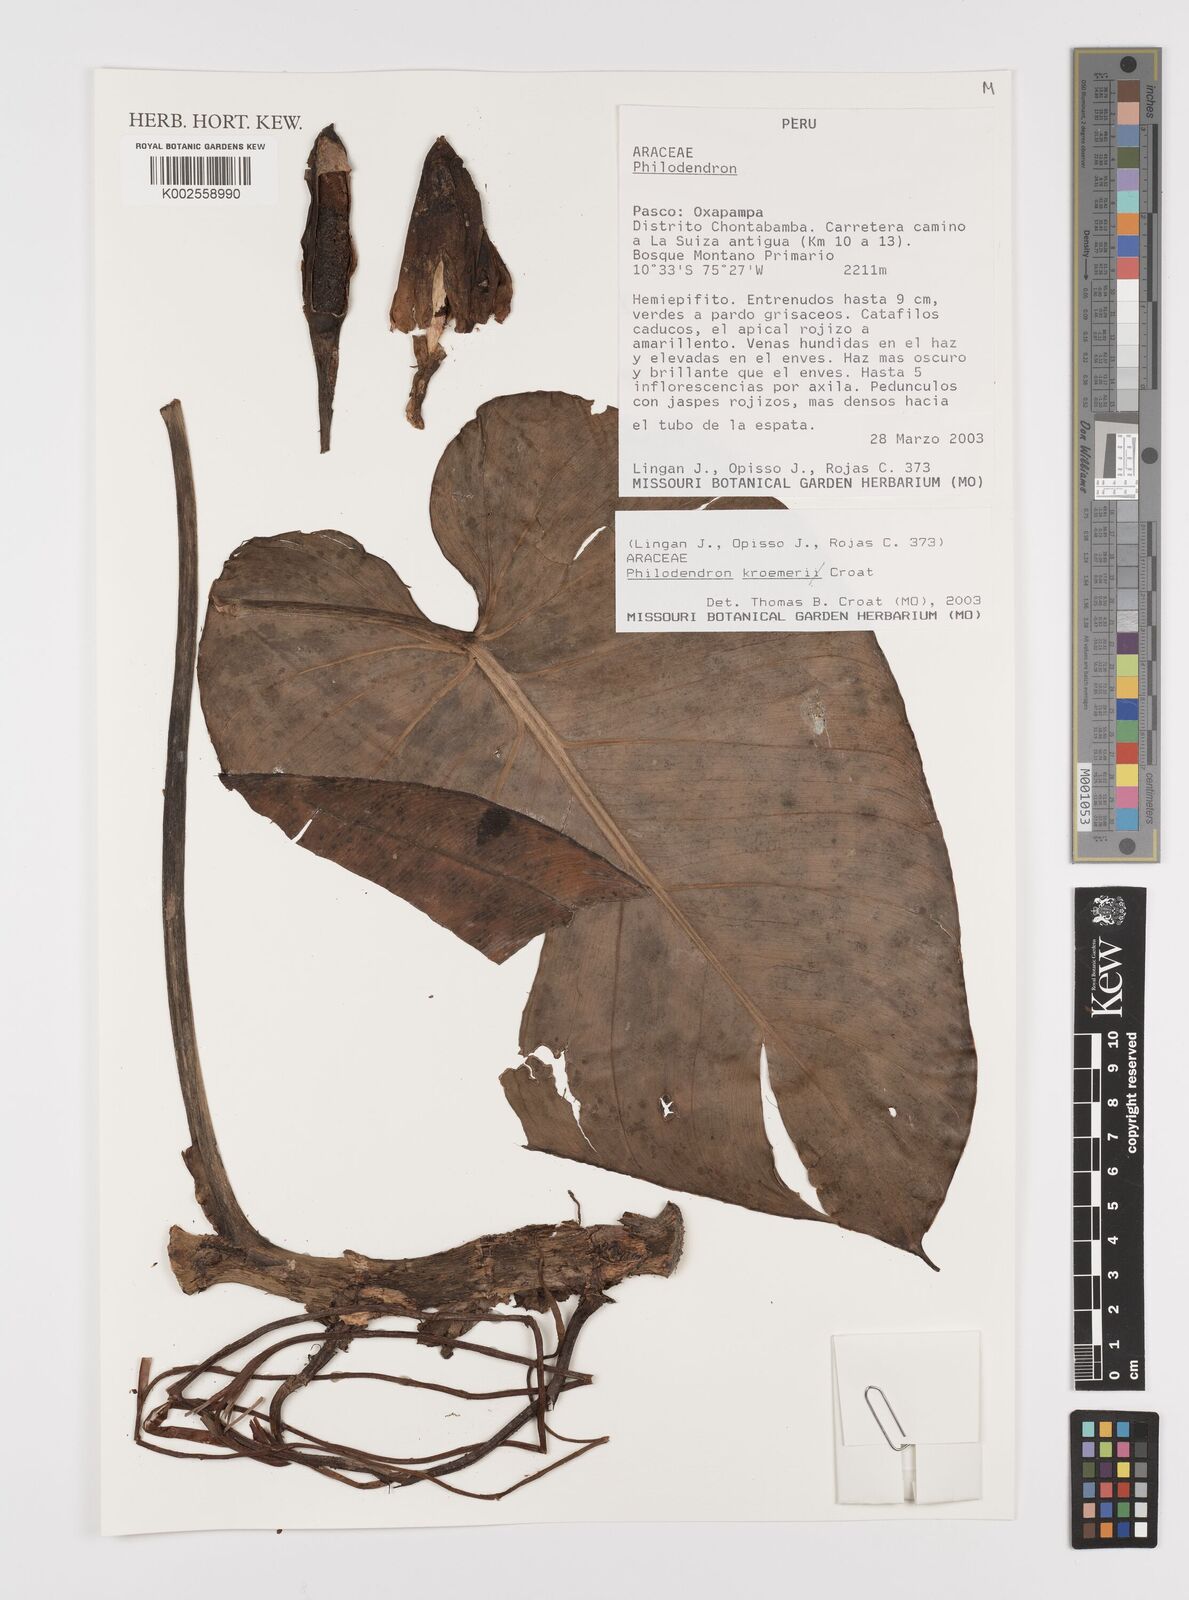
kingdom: Plantae
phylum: Tracheophyta
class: Liliopsida
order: Alismatales
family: Araceae
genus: Philodendron
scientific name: Philodendron kroemeri
